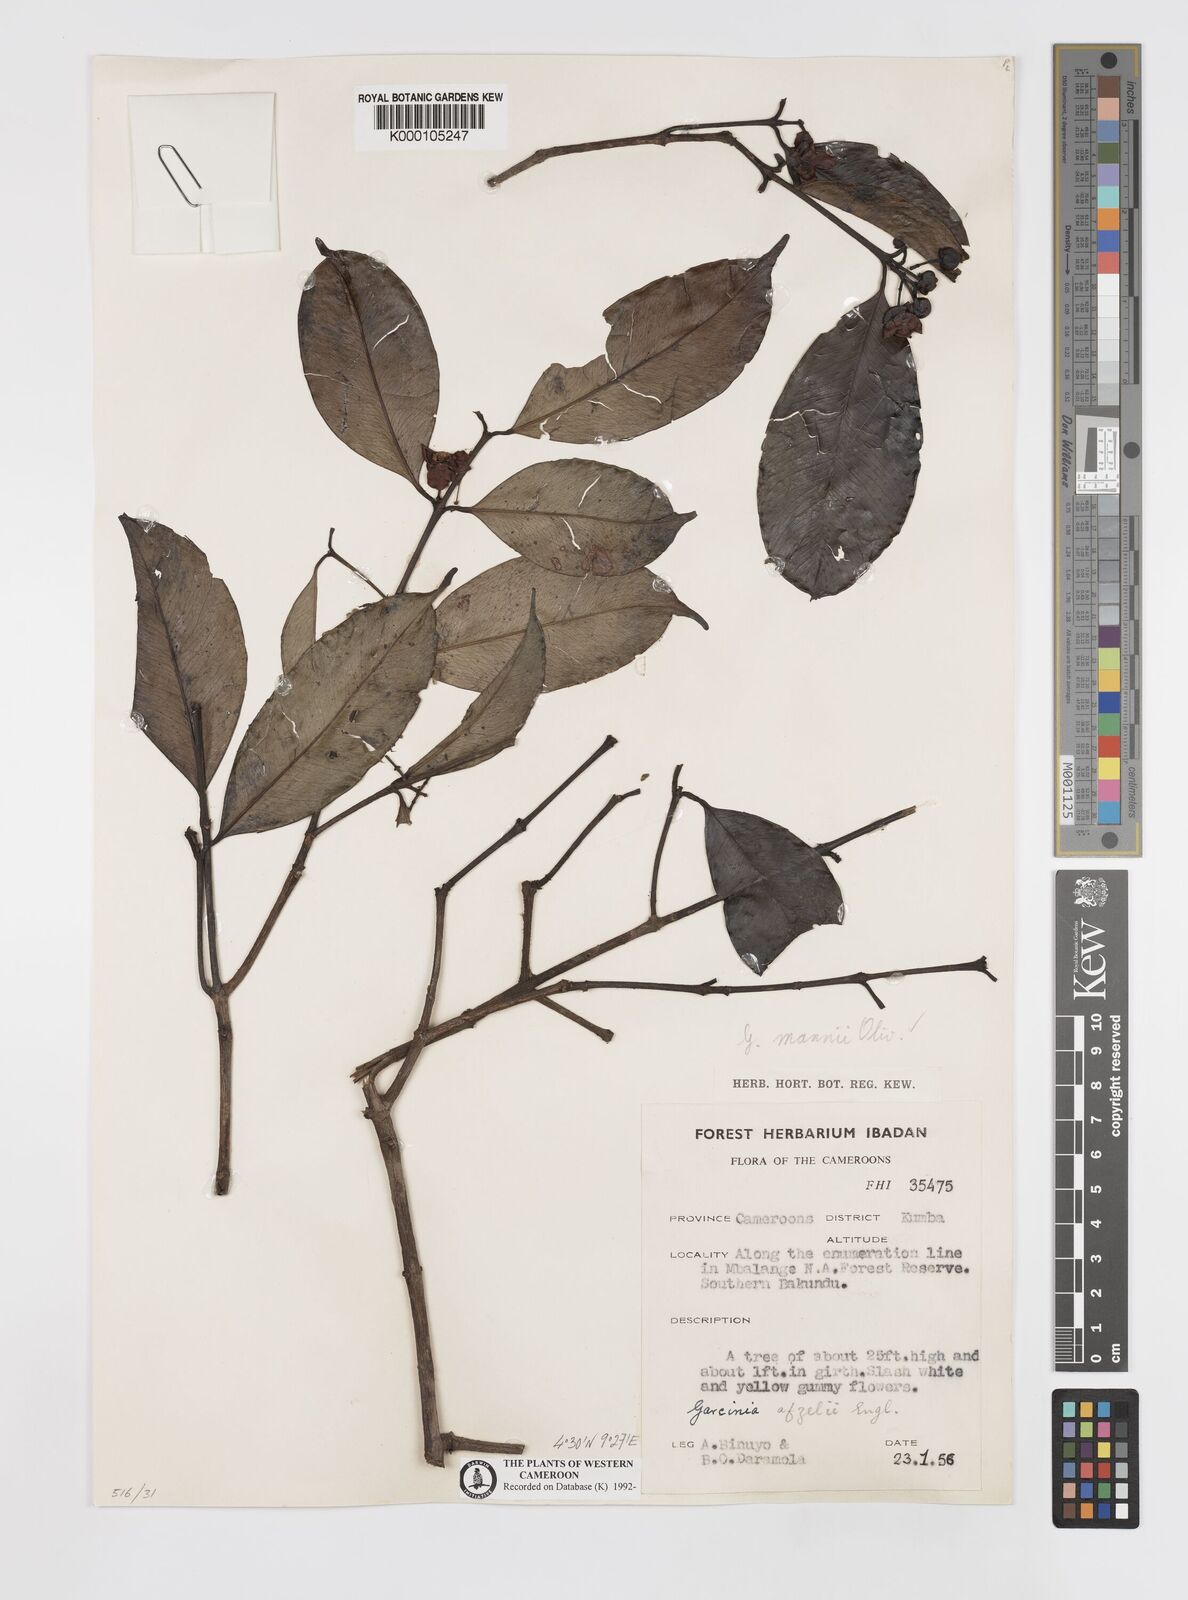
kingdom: Plantae
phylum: Tracheophyta
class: Magnoliopsida
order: Malpighiales
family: Clusiaceae
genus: Garcinia
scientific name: Garcinia mannii
